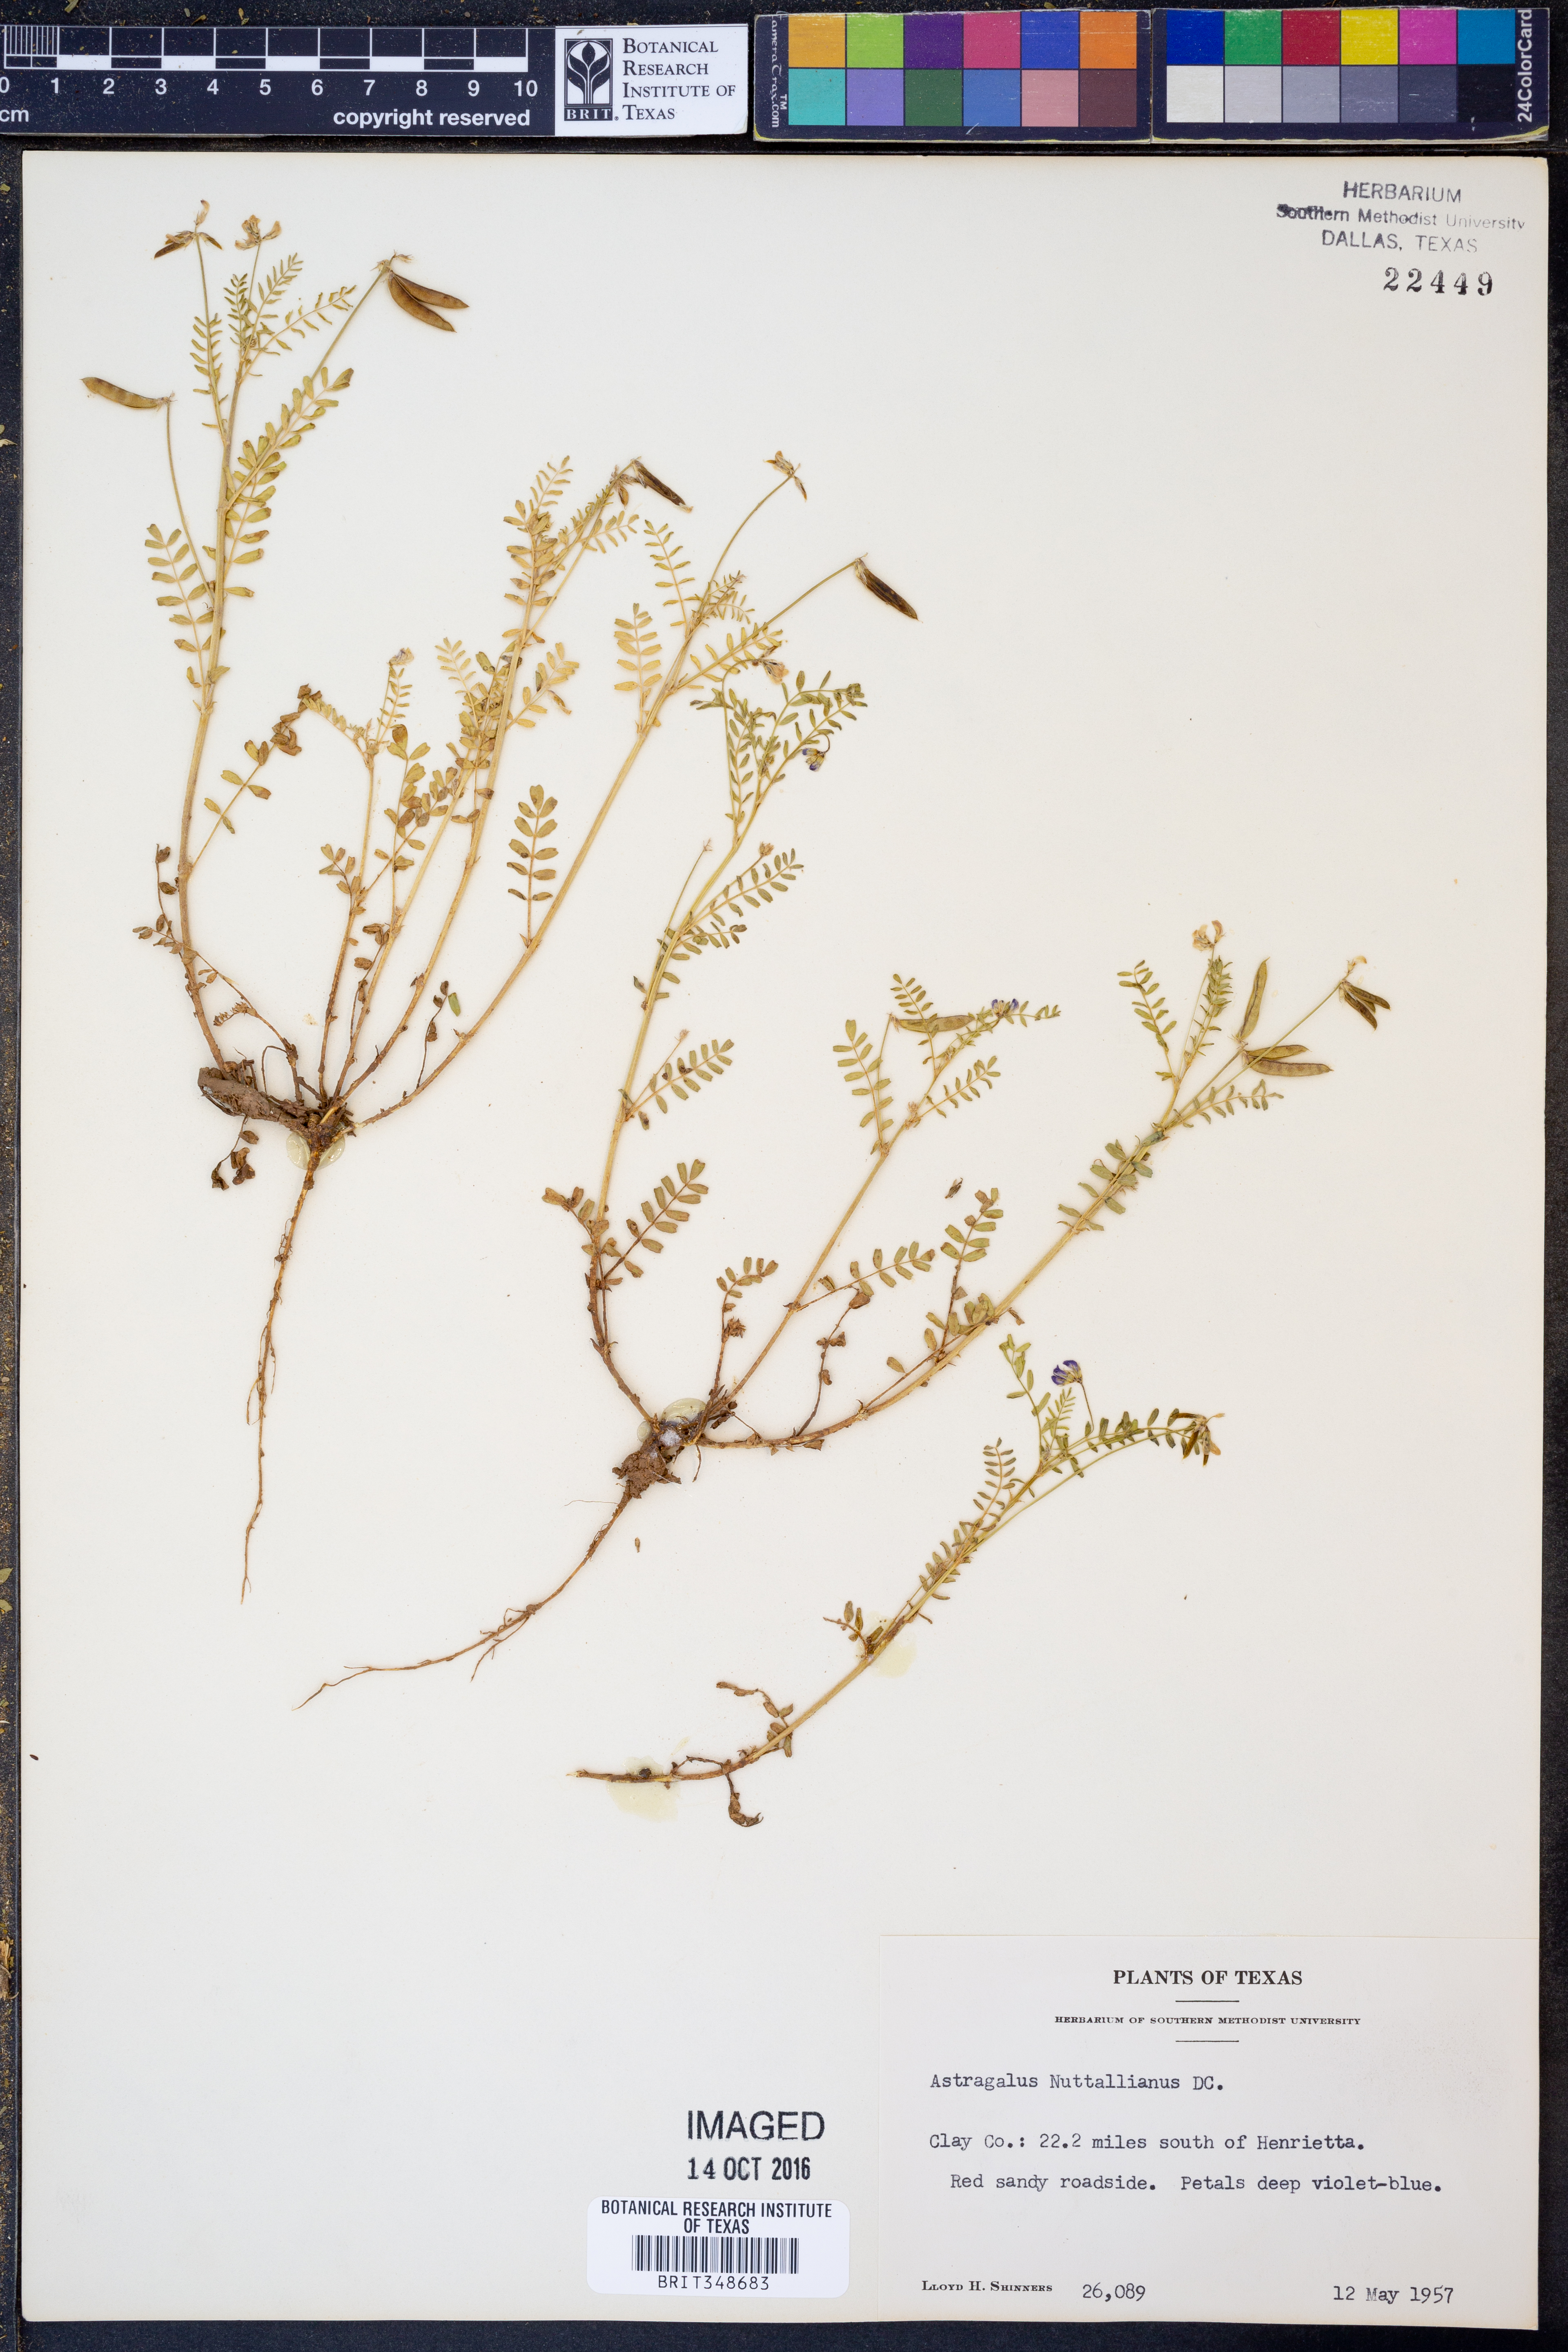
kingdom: Plantae
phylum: Tracheophyta
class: Magnoliopsida
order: Fabales
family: Fabaceae
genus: Astragalus
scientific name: Astragalus nuttallianus
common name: Smallflowered milkvetch
